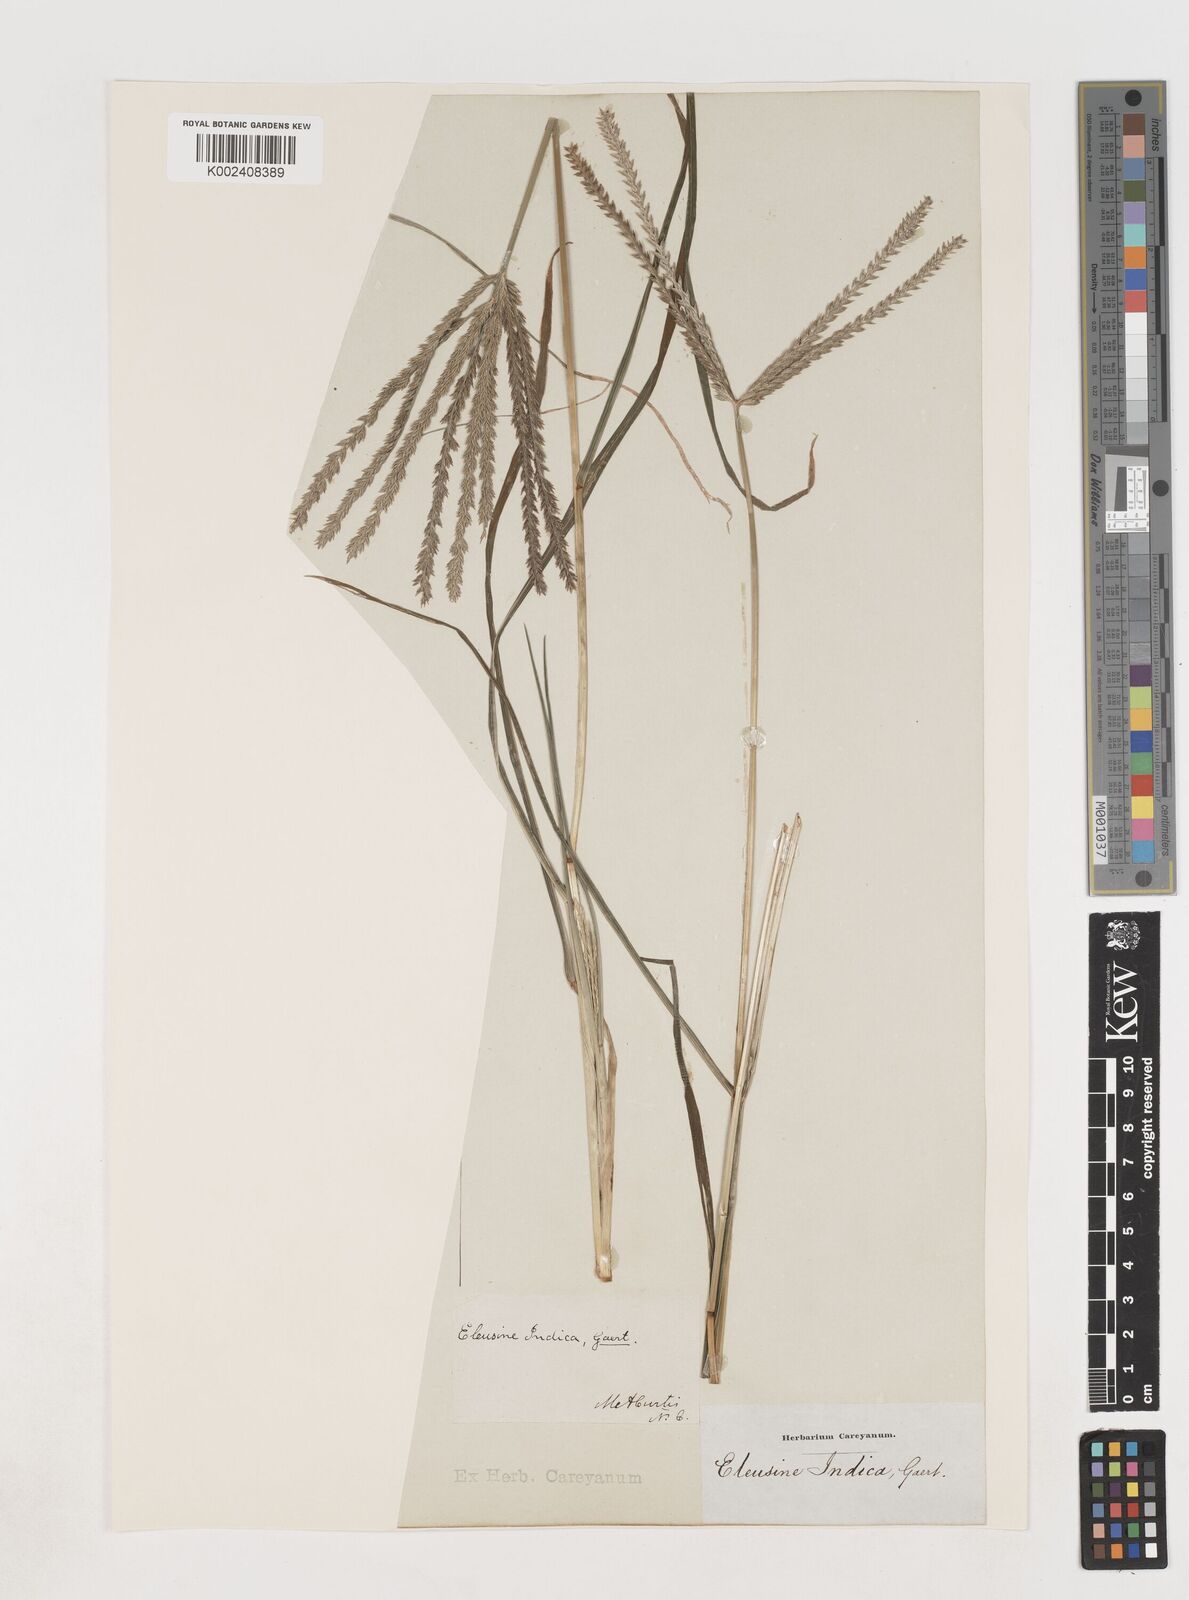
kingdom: Plantae
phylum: Tracheophyta
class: Liliopsida
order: Poales
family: Poaceae
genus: Eleusine
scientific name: Eleusine indica
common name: Yard-grass
